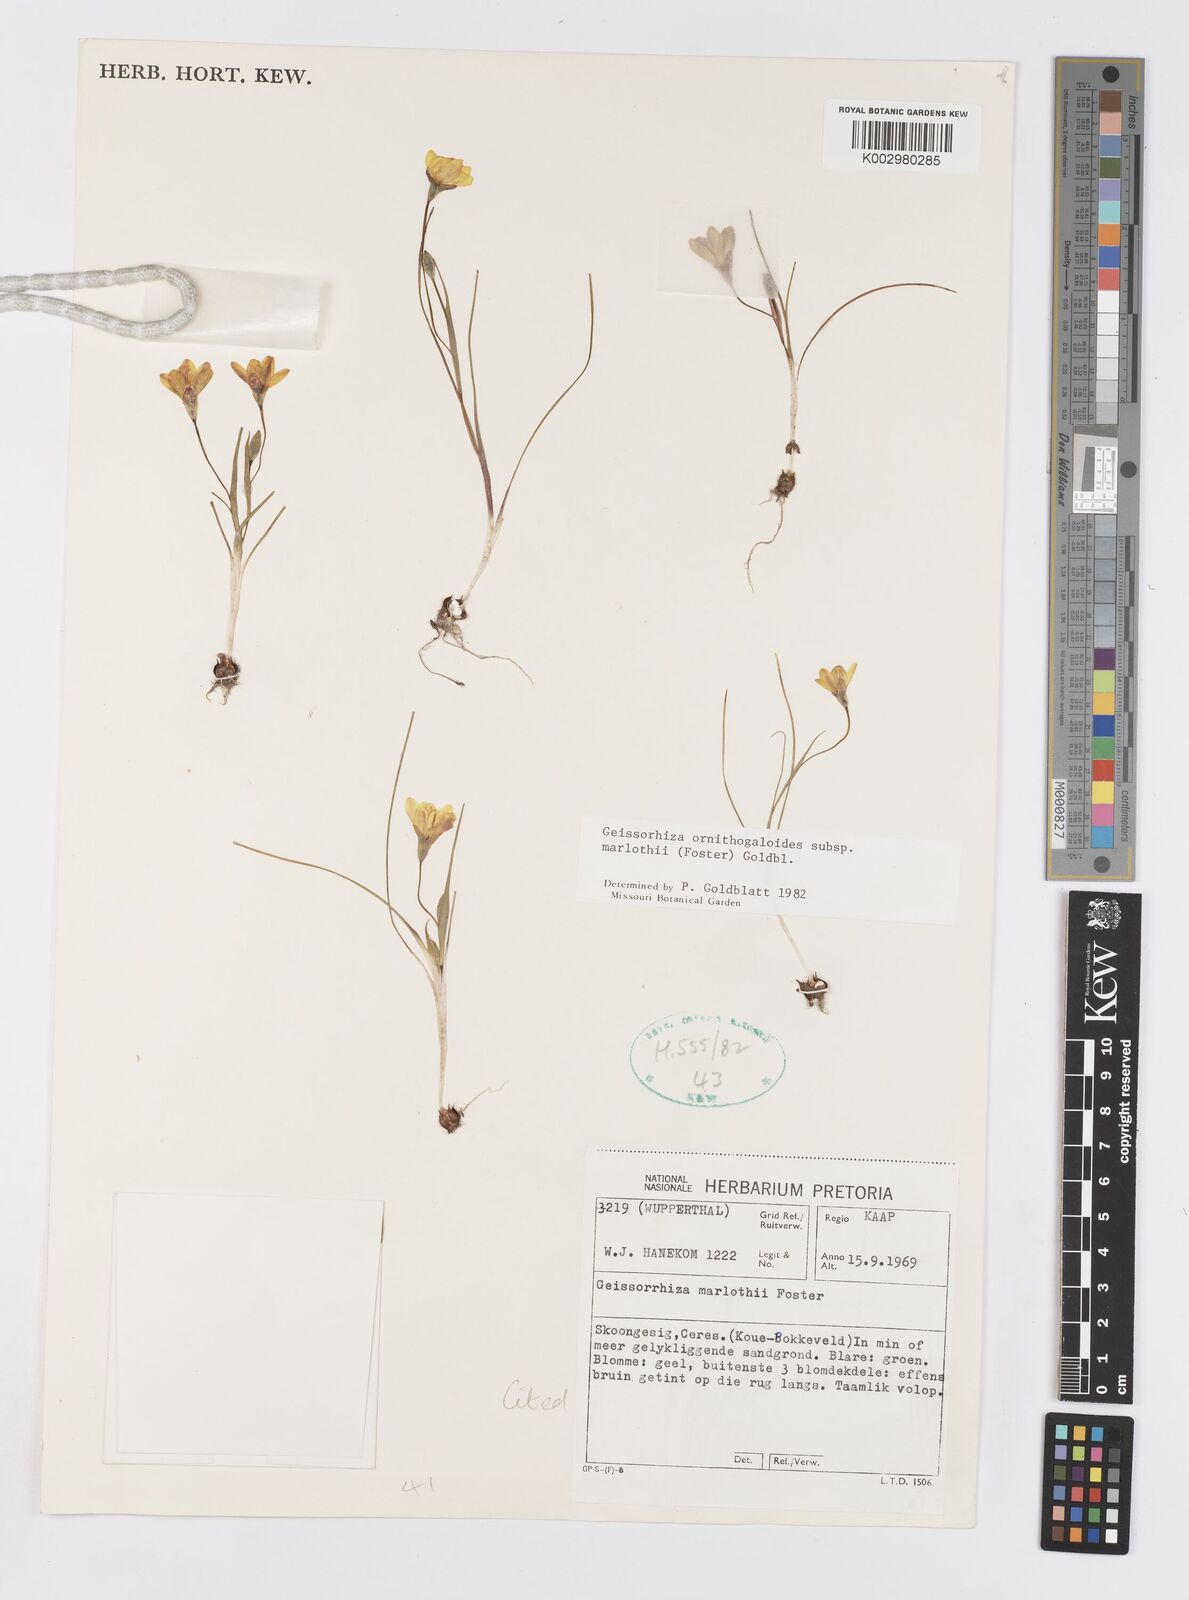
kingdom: Plantae
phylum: Tracheophyta
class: Liliopsida
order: Asparagales
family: Iridaceae
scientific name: Iridaceae
